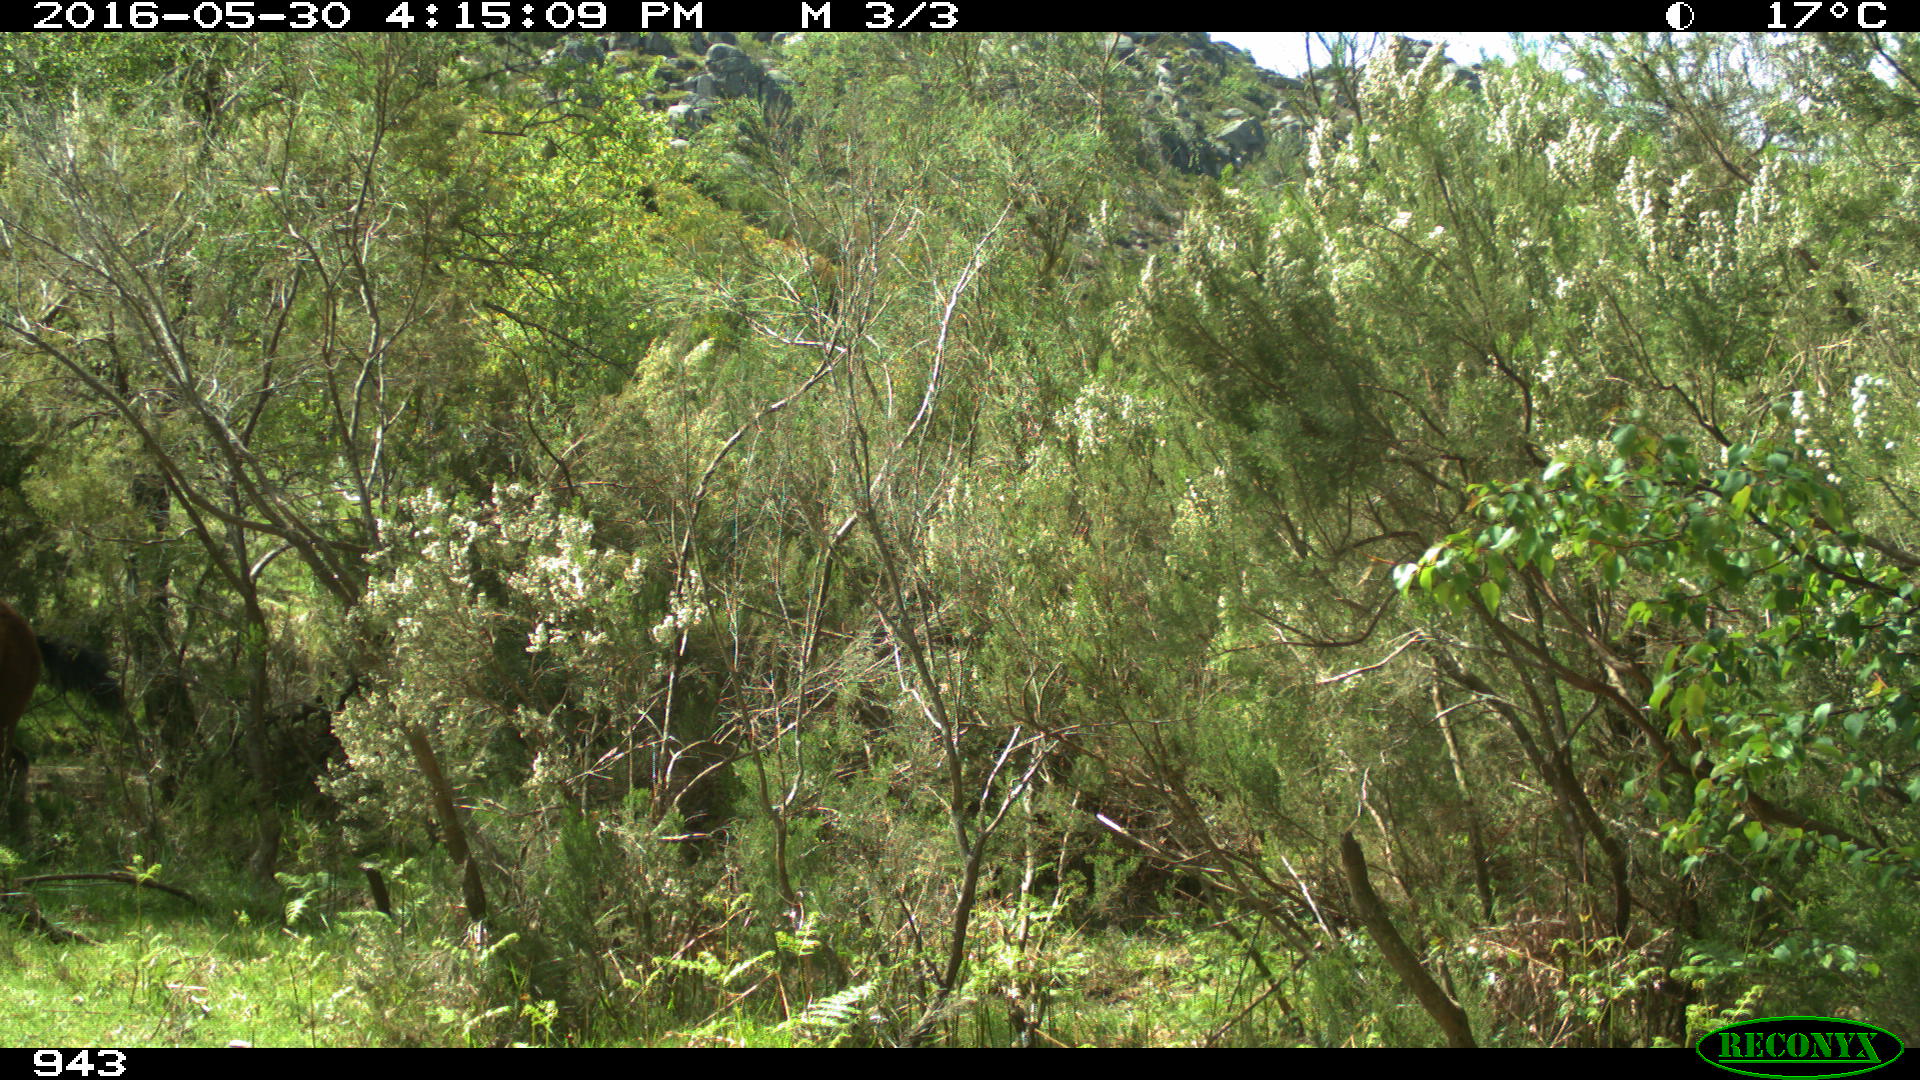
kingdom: Animalia
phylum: Chordata
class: Mammalia
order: Perissodactyla
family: Equidae
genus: Equus
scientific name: Equus caballus
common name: Horse
